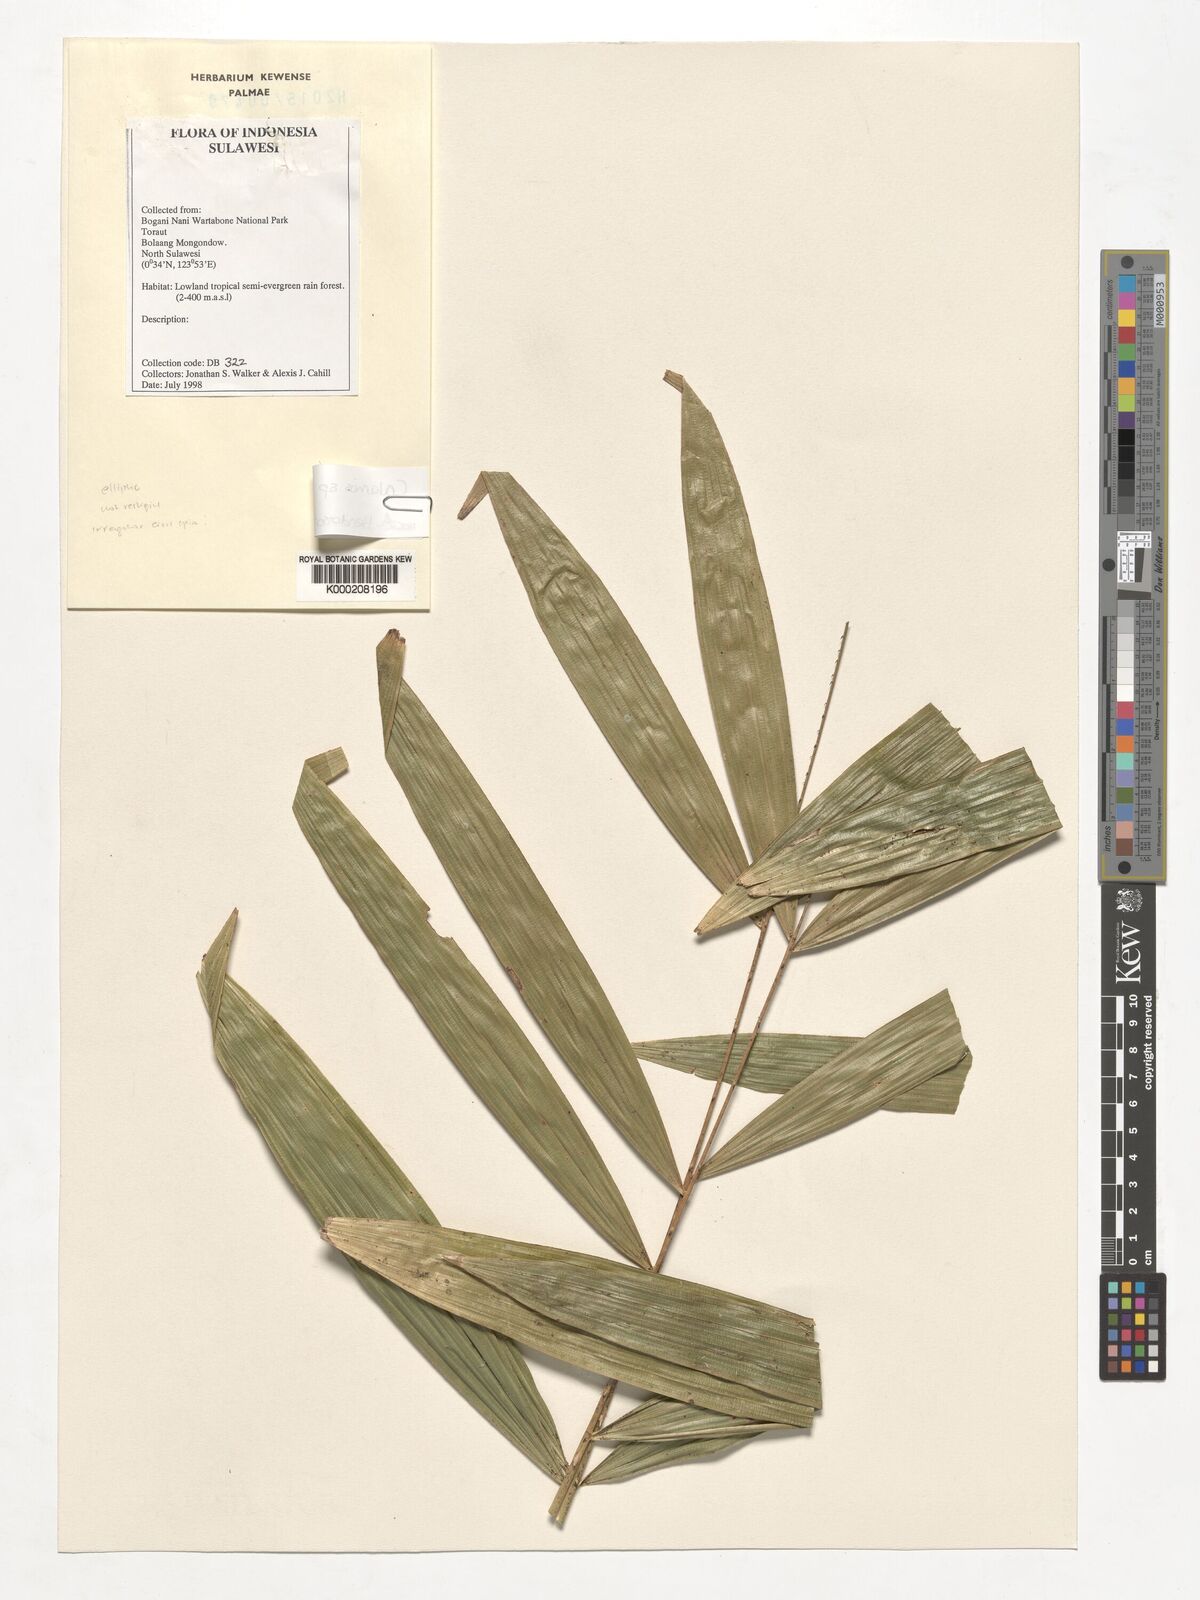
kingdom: Plantae
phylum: Tracheophyta
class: Liliopsida
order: Arecales
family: Arecaceae
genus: Calamus
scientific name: Calamus
